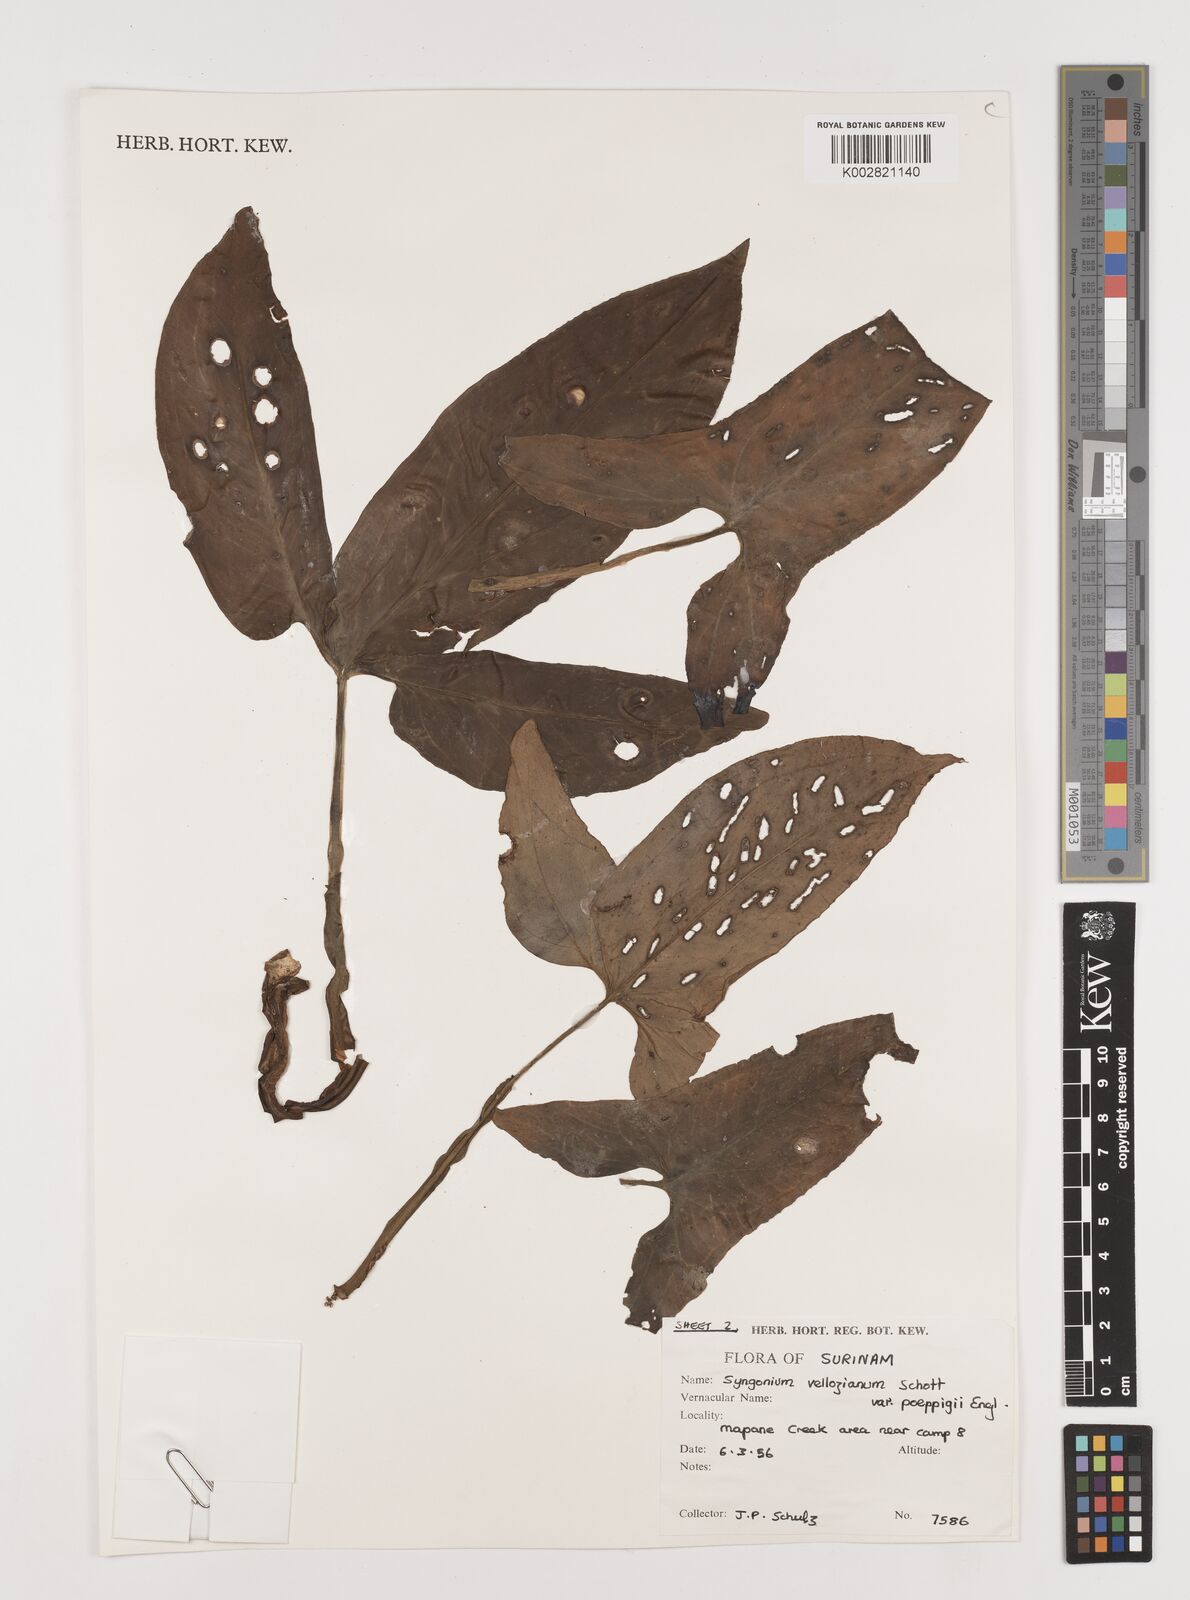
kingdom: Plantae
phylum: Tracheophyta
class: Liliopsida
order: Alismatales
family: Araceae
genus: Syngonium
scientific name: Syngonium podophyllum
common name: American evergreen
